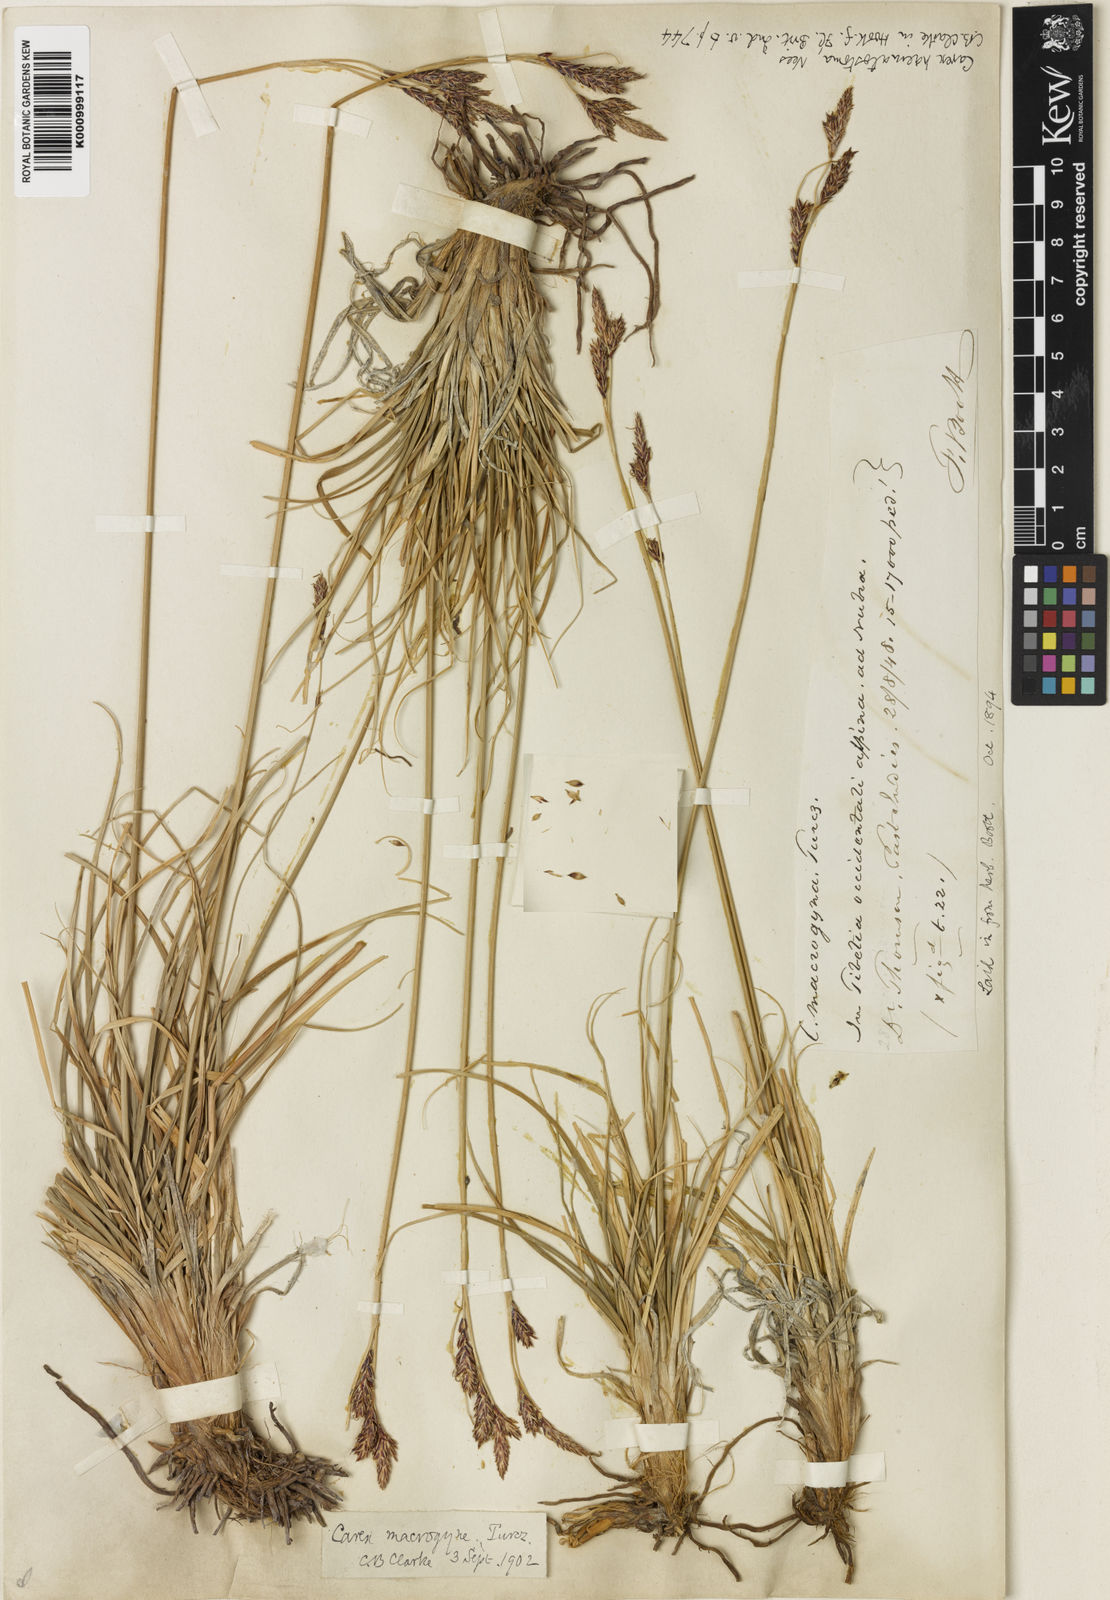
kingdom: Plantae
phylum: Tracheophyta
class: Liliopsida
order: Poales
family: Cyperaceae
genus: Carex
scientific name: Carex haematostoma
